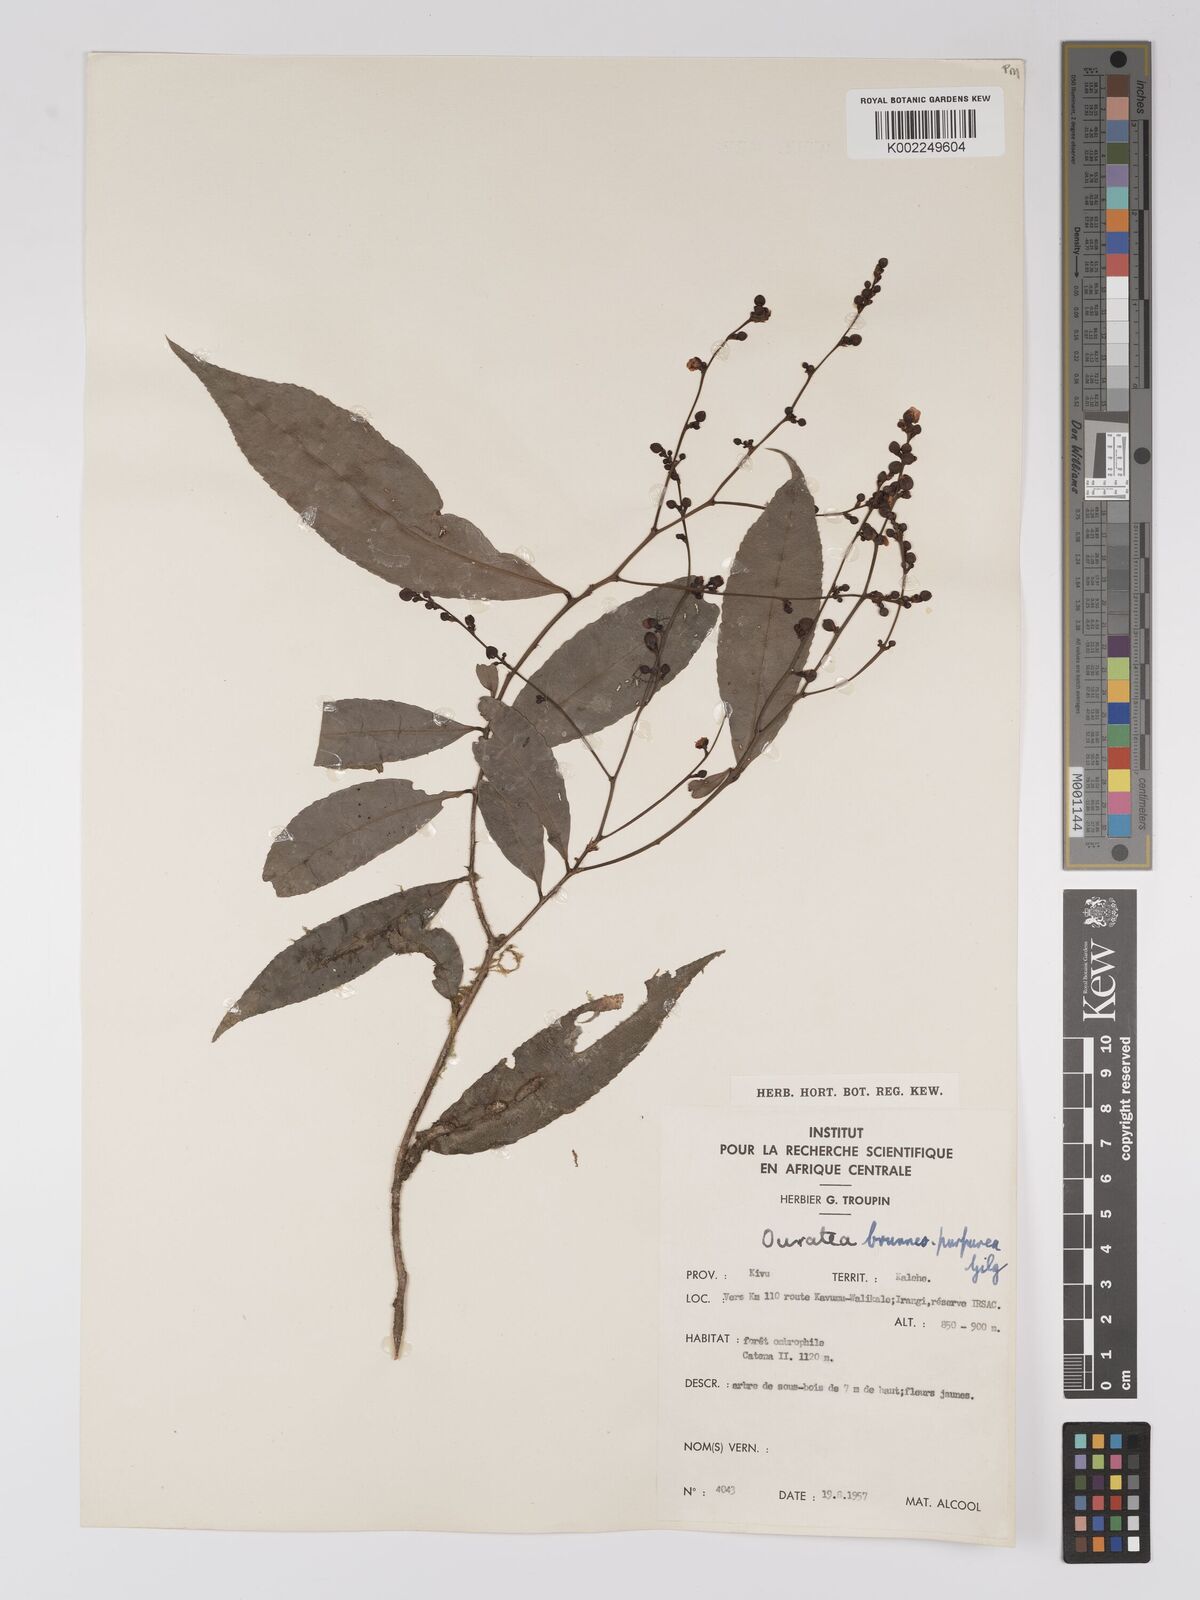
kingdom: Plantae
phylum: Tracheophyta
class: Magnoliopsida
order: Malpighiales
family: Ochnaceae
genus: Campylospermum
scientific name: Campylospermum reticulatum
